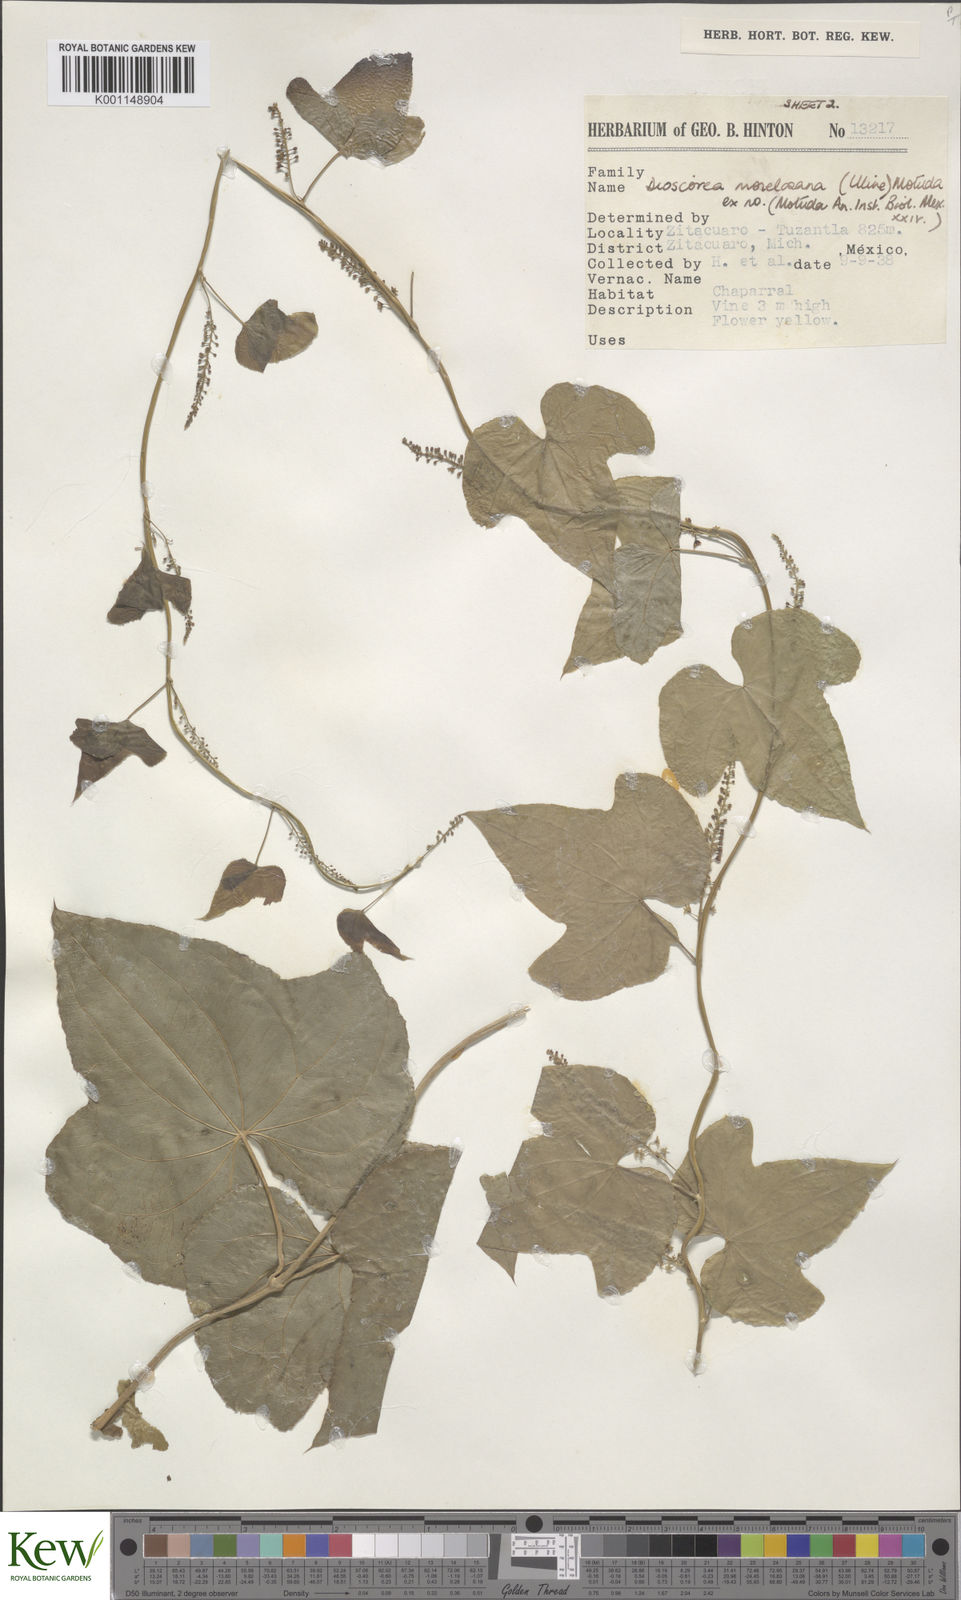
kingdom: Plantae
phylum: Tracheophyta
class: Liliopsida
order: Dioscoreales
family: Dioscoreaceae
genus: Dioscorea
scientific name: Dioscorea morelosana
